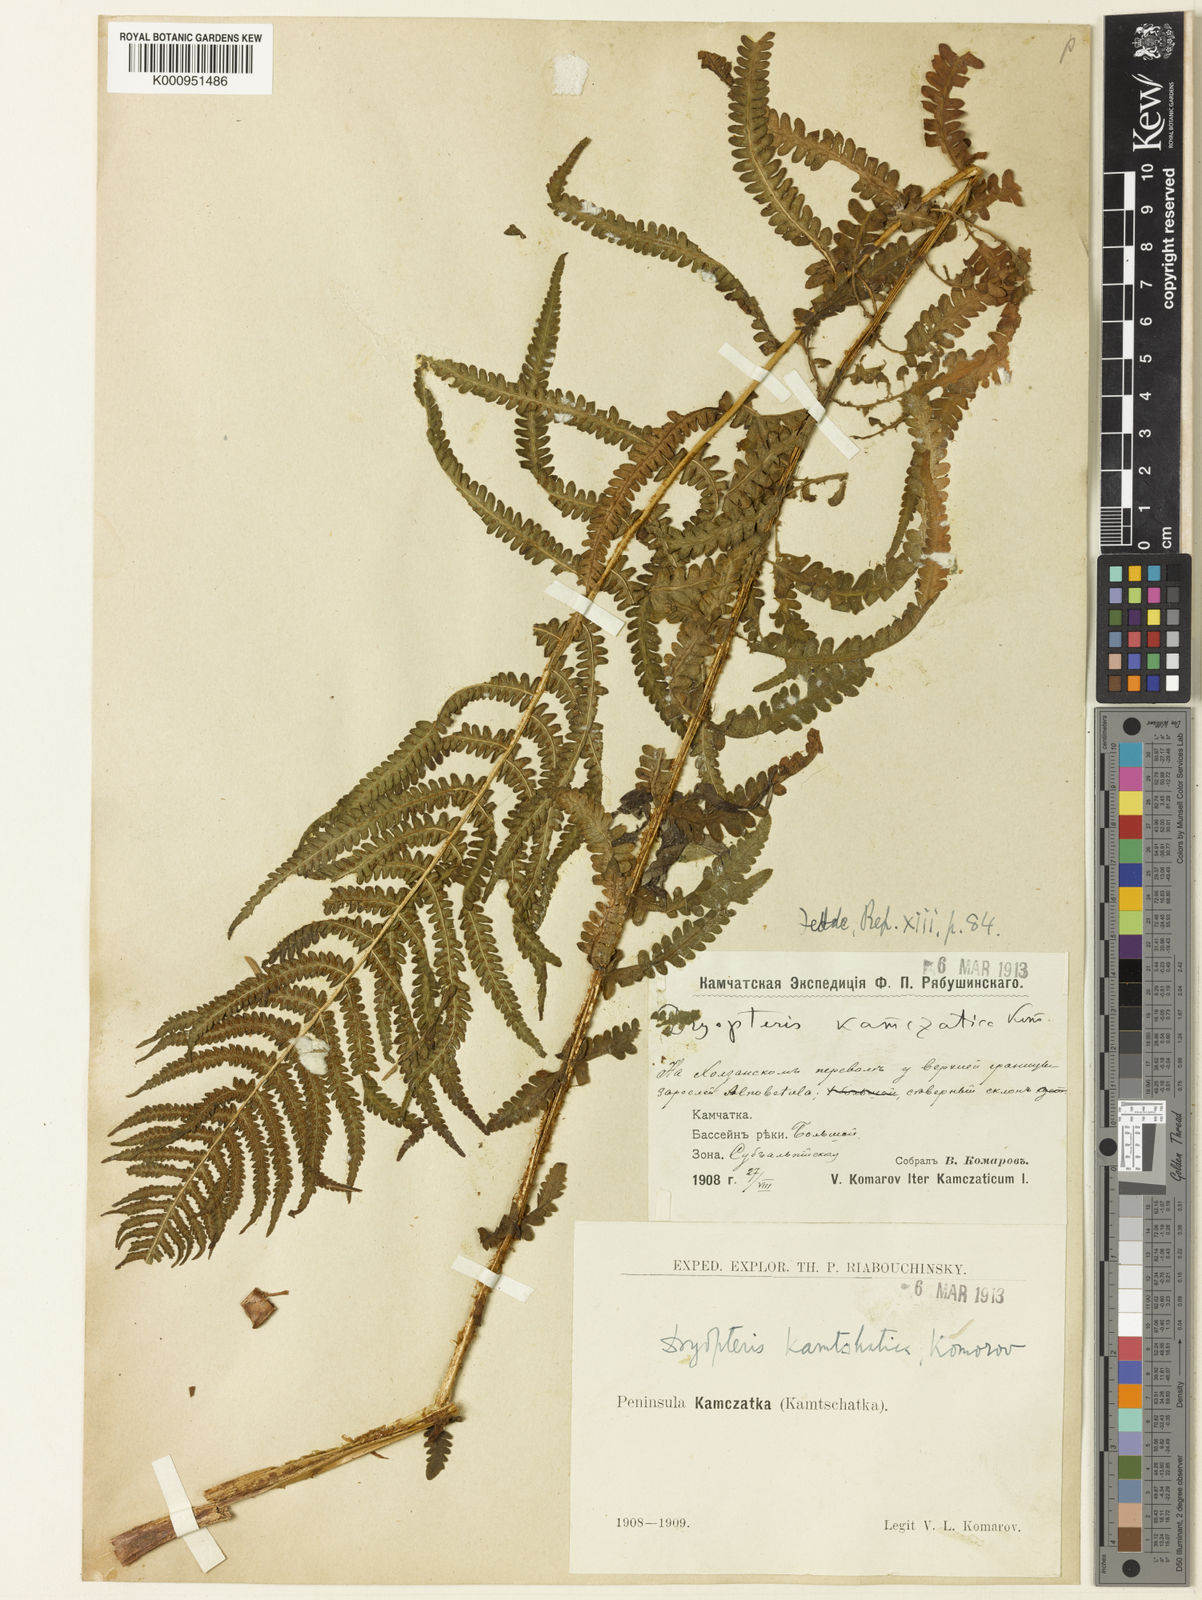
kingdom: Plantae
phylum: Tracheophyta
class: Polypodiopsida
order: Polypodiales
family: Thelypteridaceae
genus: Oreopteris
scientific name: Oreopteris limbosperma
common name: Lemon-scented fern
